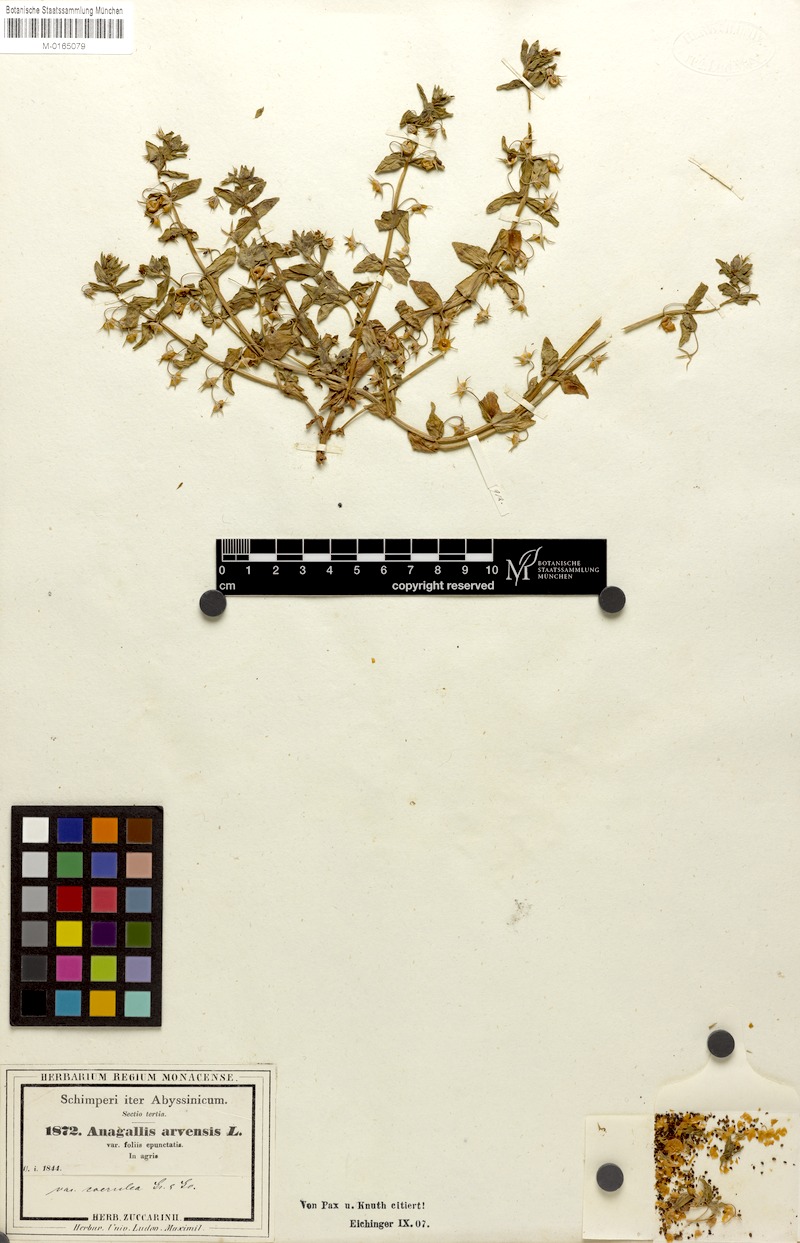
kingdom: Plantae
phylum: Tracheophyta
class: Magnoliopsida
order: Ericales
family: Primulaceae
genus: Lysimachia
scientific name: Lysimachia arvensis
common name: Scarlet pimpernel
